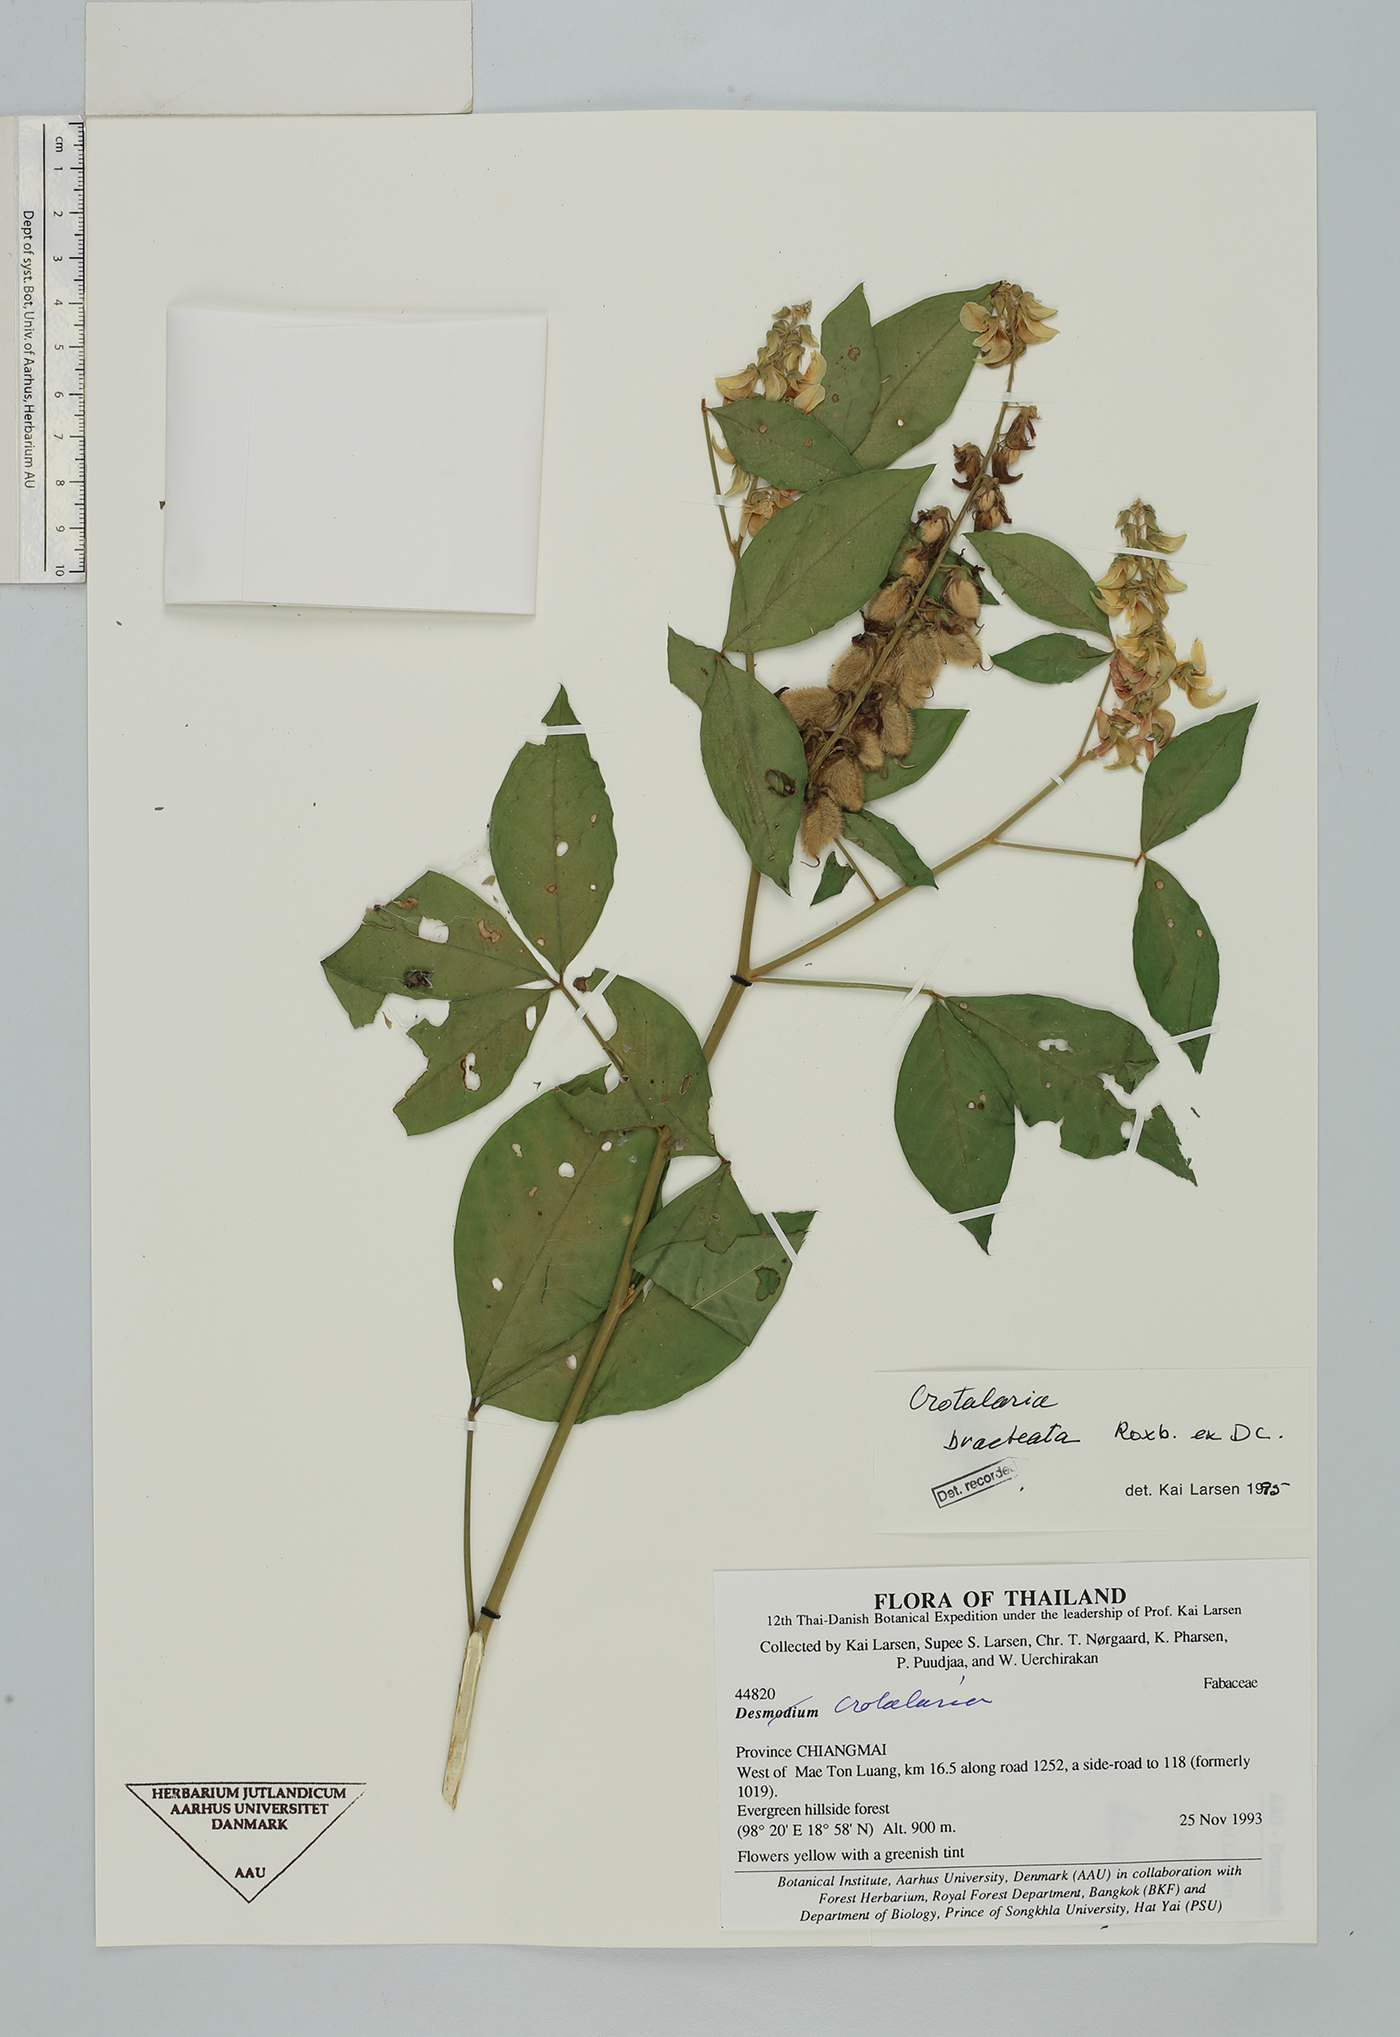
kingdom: Plantae
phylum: Tracheophyta
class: Magnoliopsida
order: Fabales
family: Fabaceae
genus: Crotalaria
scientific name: Crotalaria bracteata
